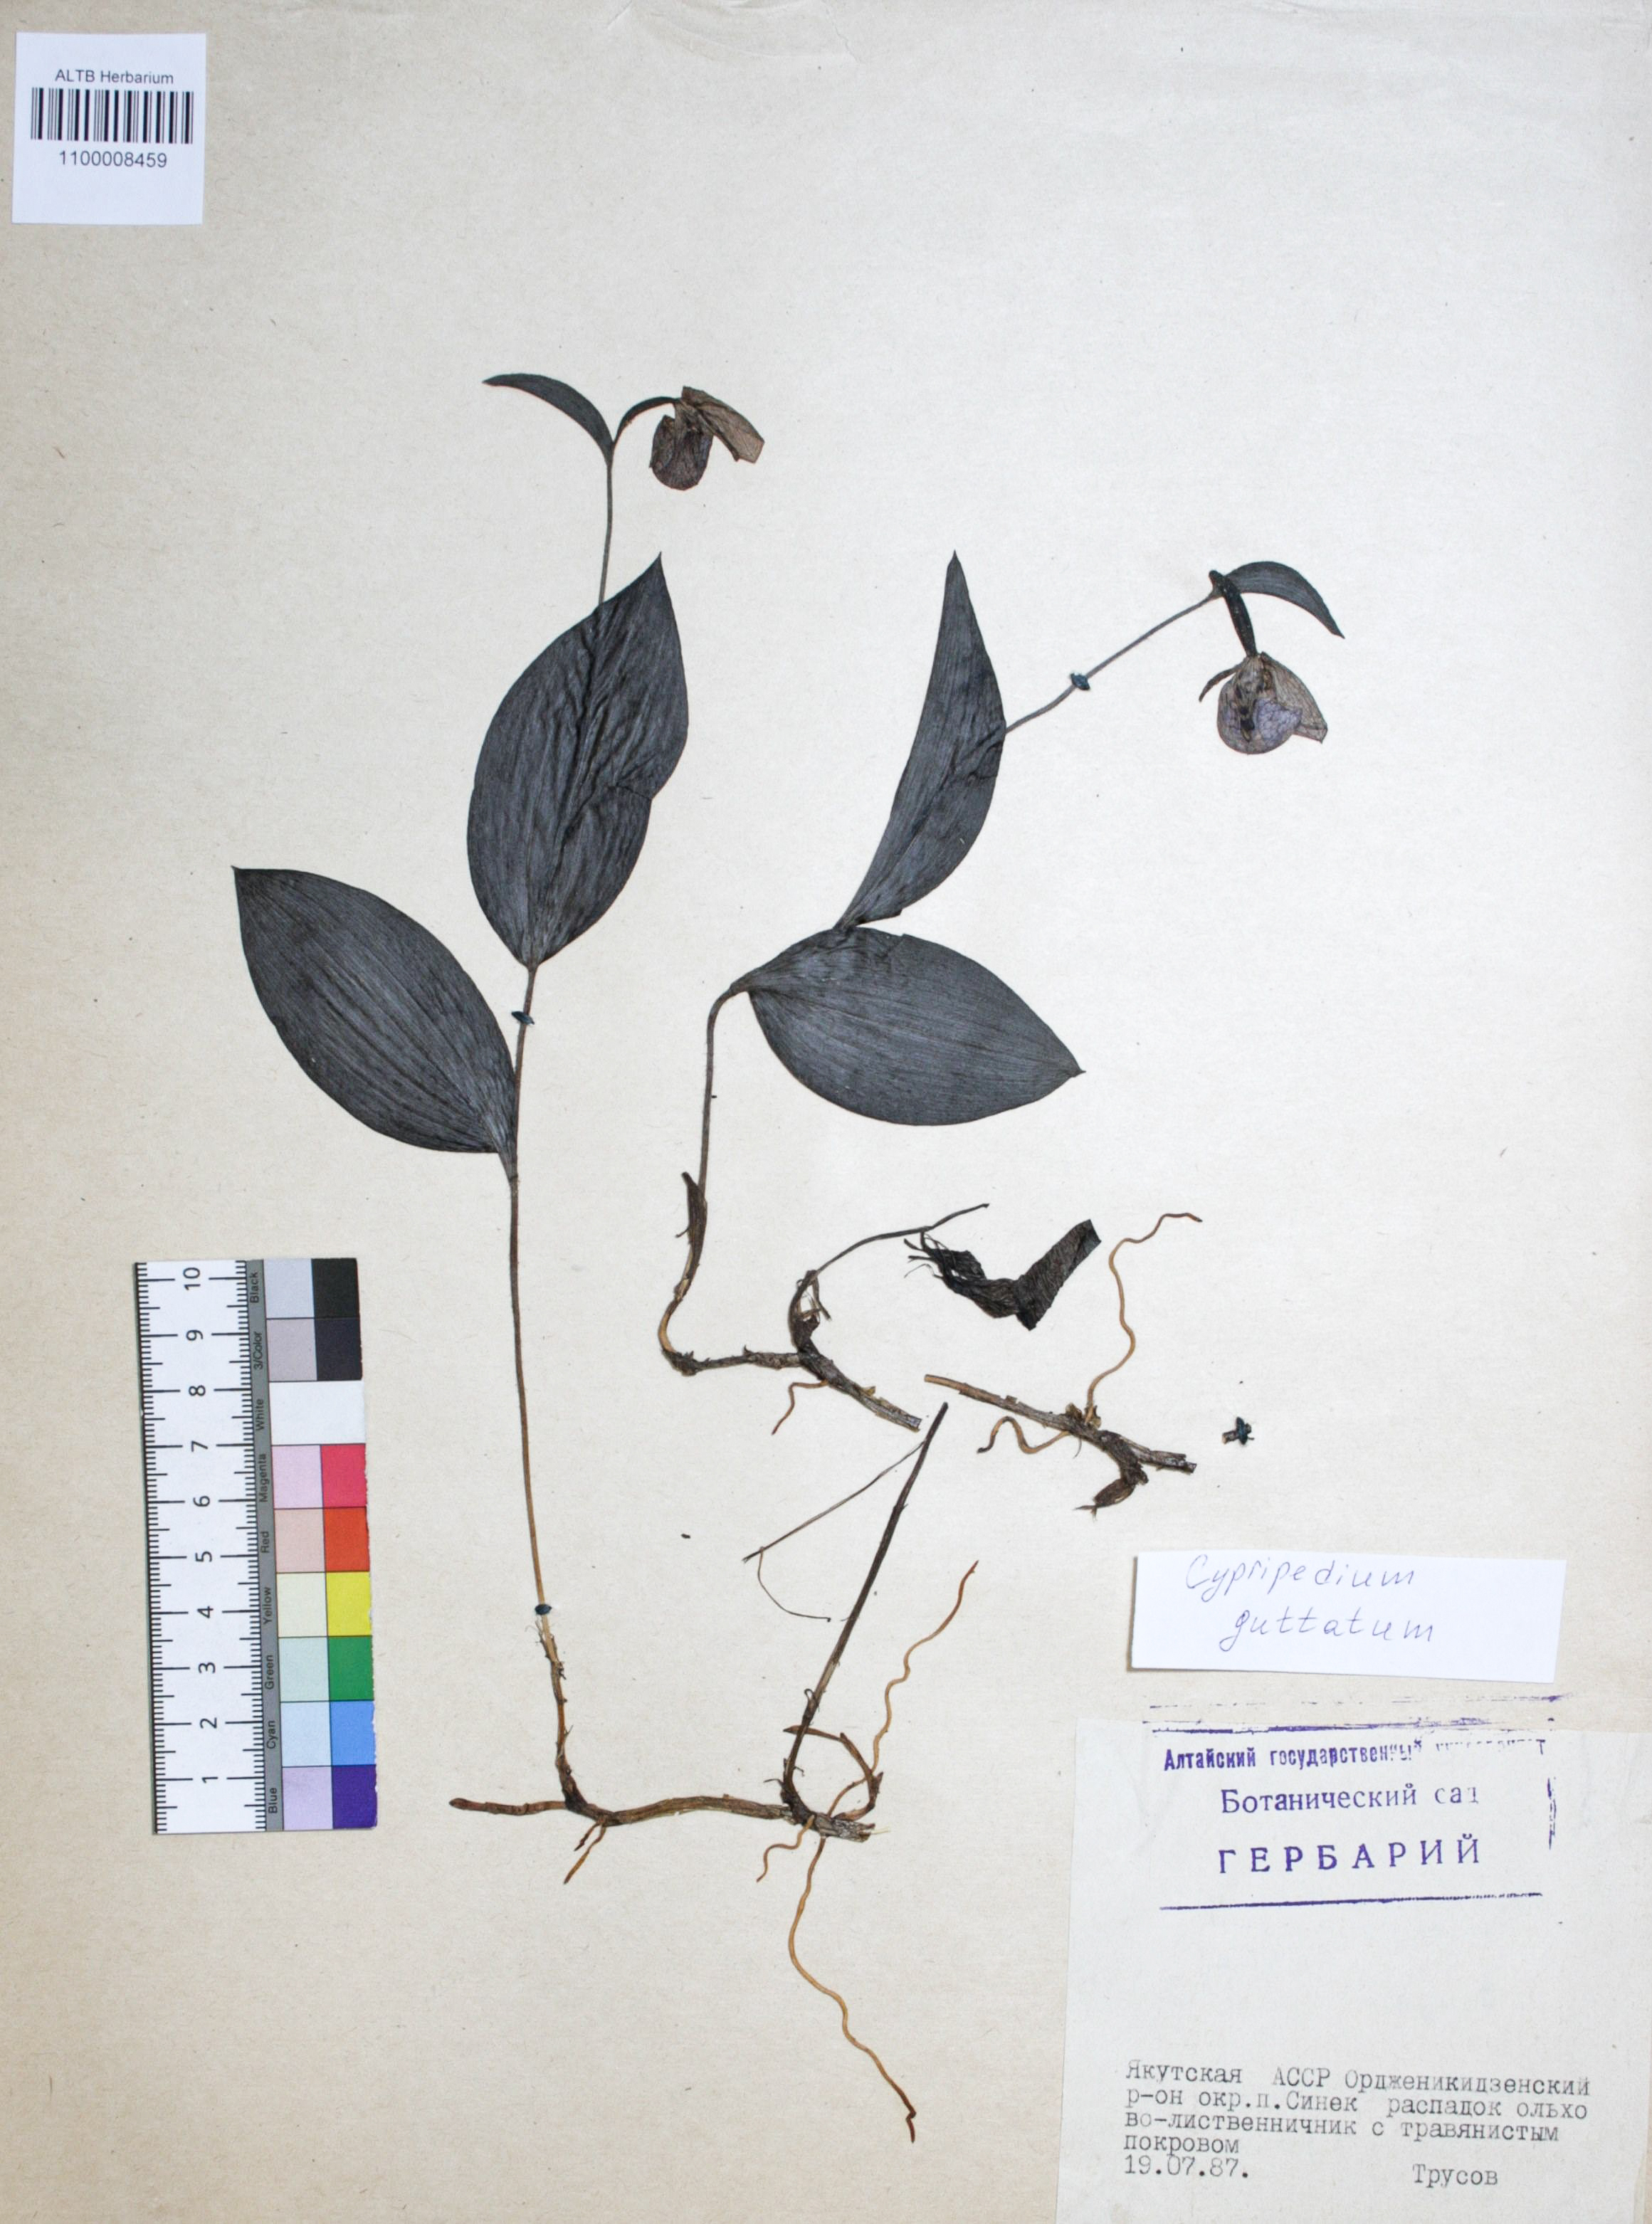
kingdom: Plantae
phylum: Tracheophyta
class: Liliopsida
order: Asparagales
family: Orchidaceae
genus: Cypripedium
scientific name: Cypripedium guttatum
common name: Pink lady slipper
